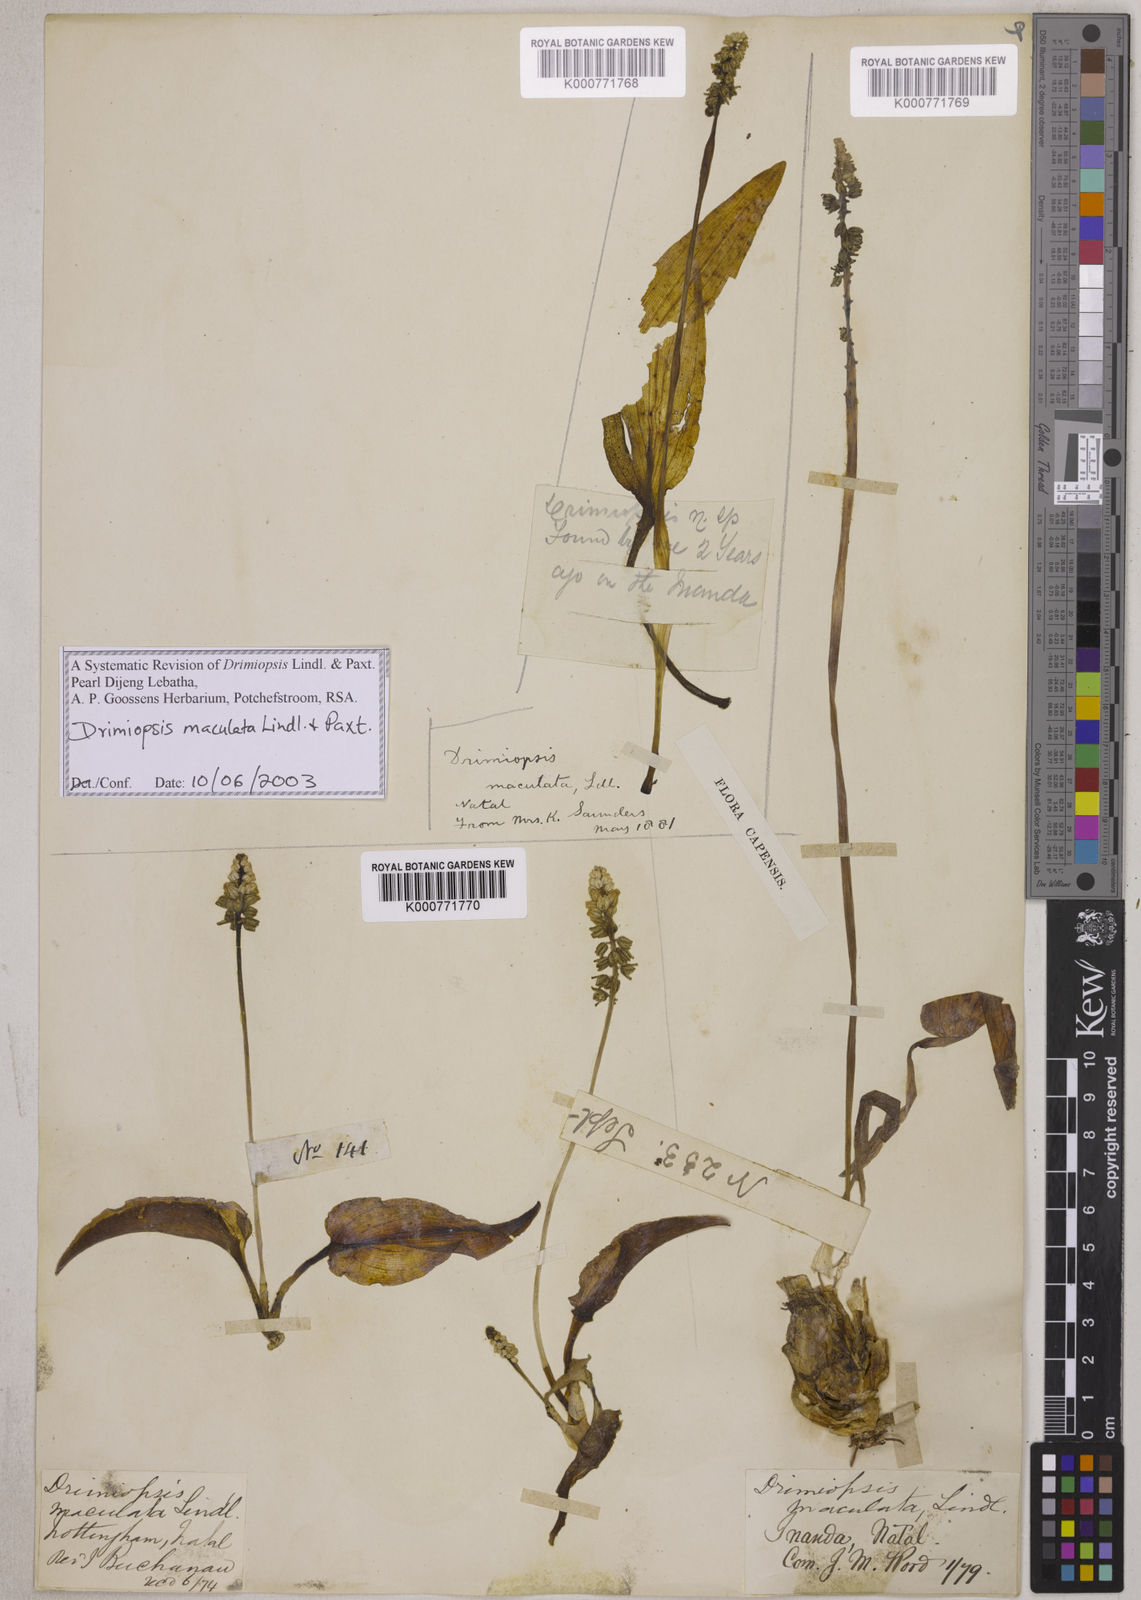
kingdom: Plantae
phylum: Tracheophyta
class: Liliopsida
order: Asparagales
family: Asparagaceae
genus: Drimiopsis
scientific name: Drimiopsis maculata
